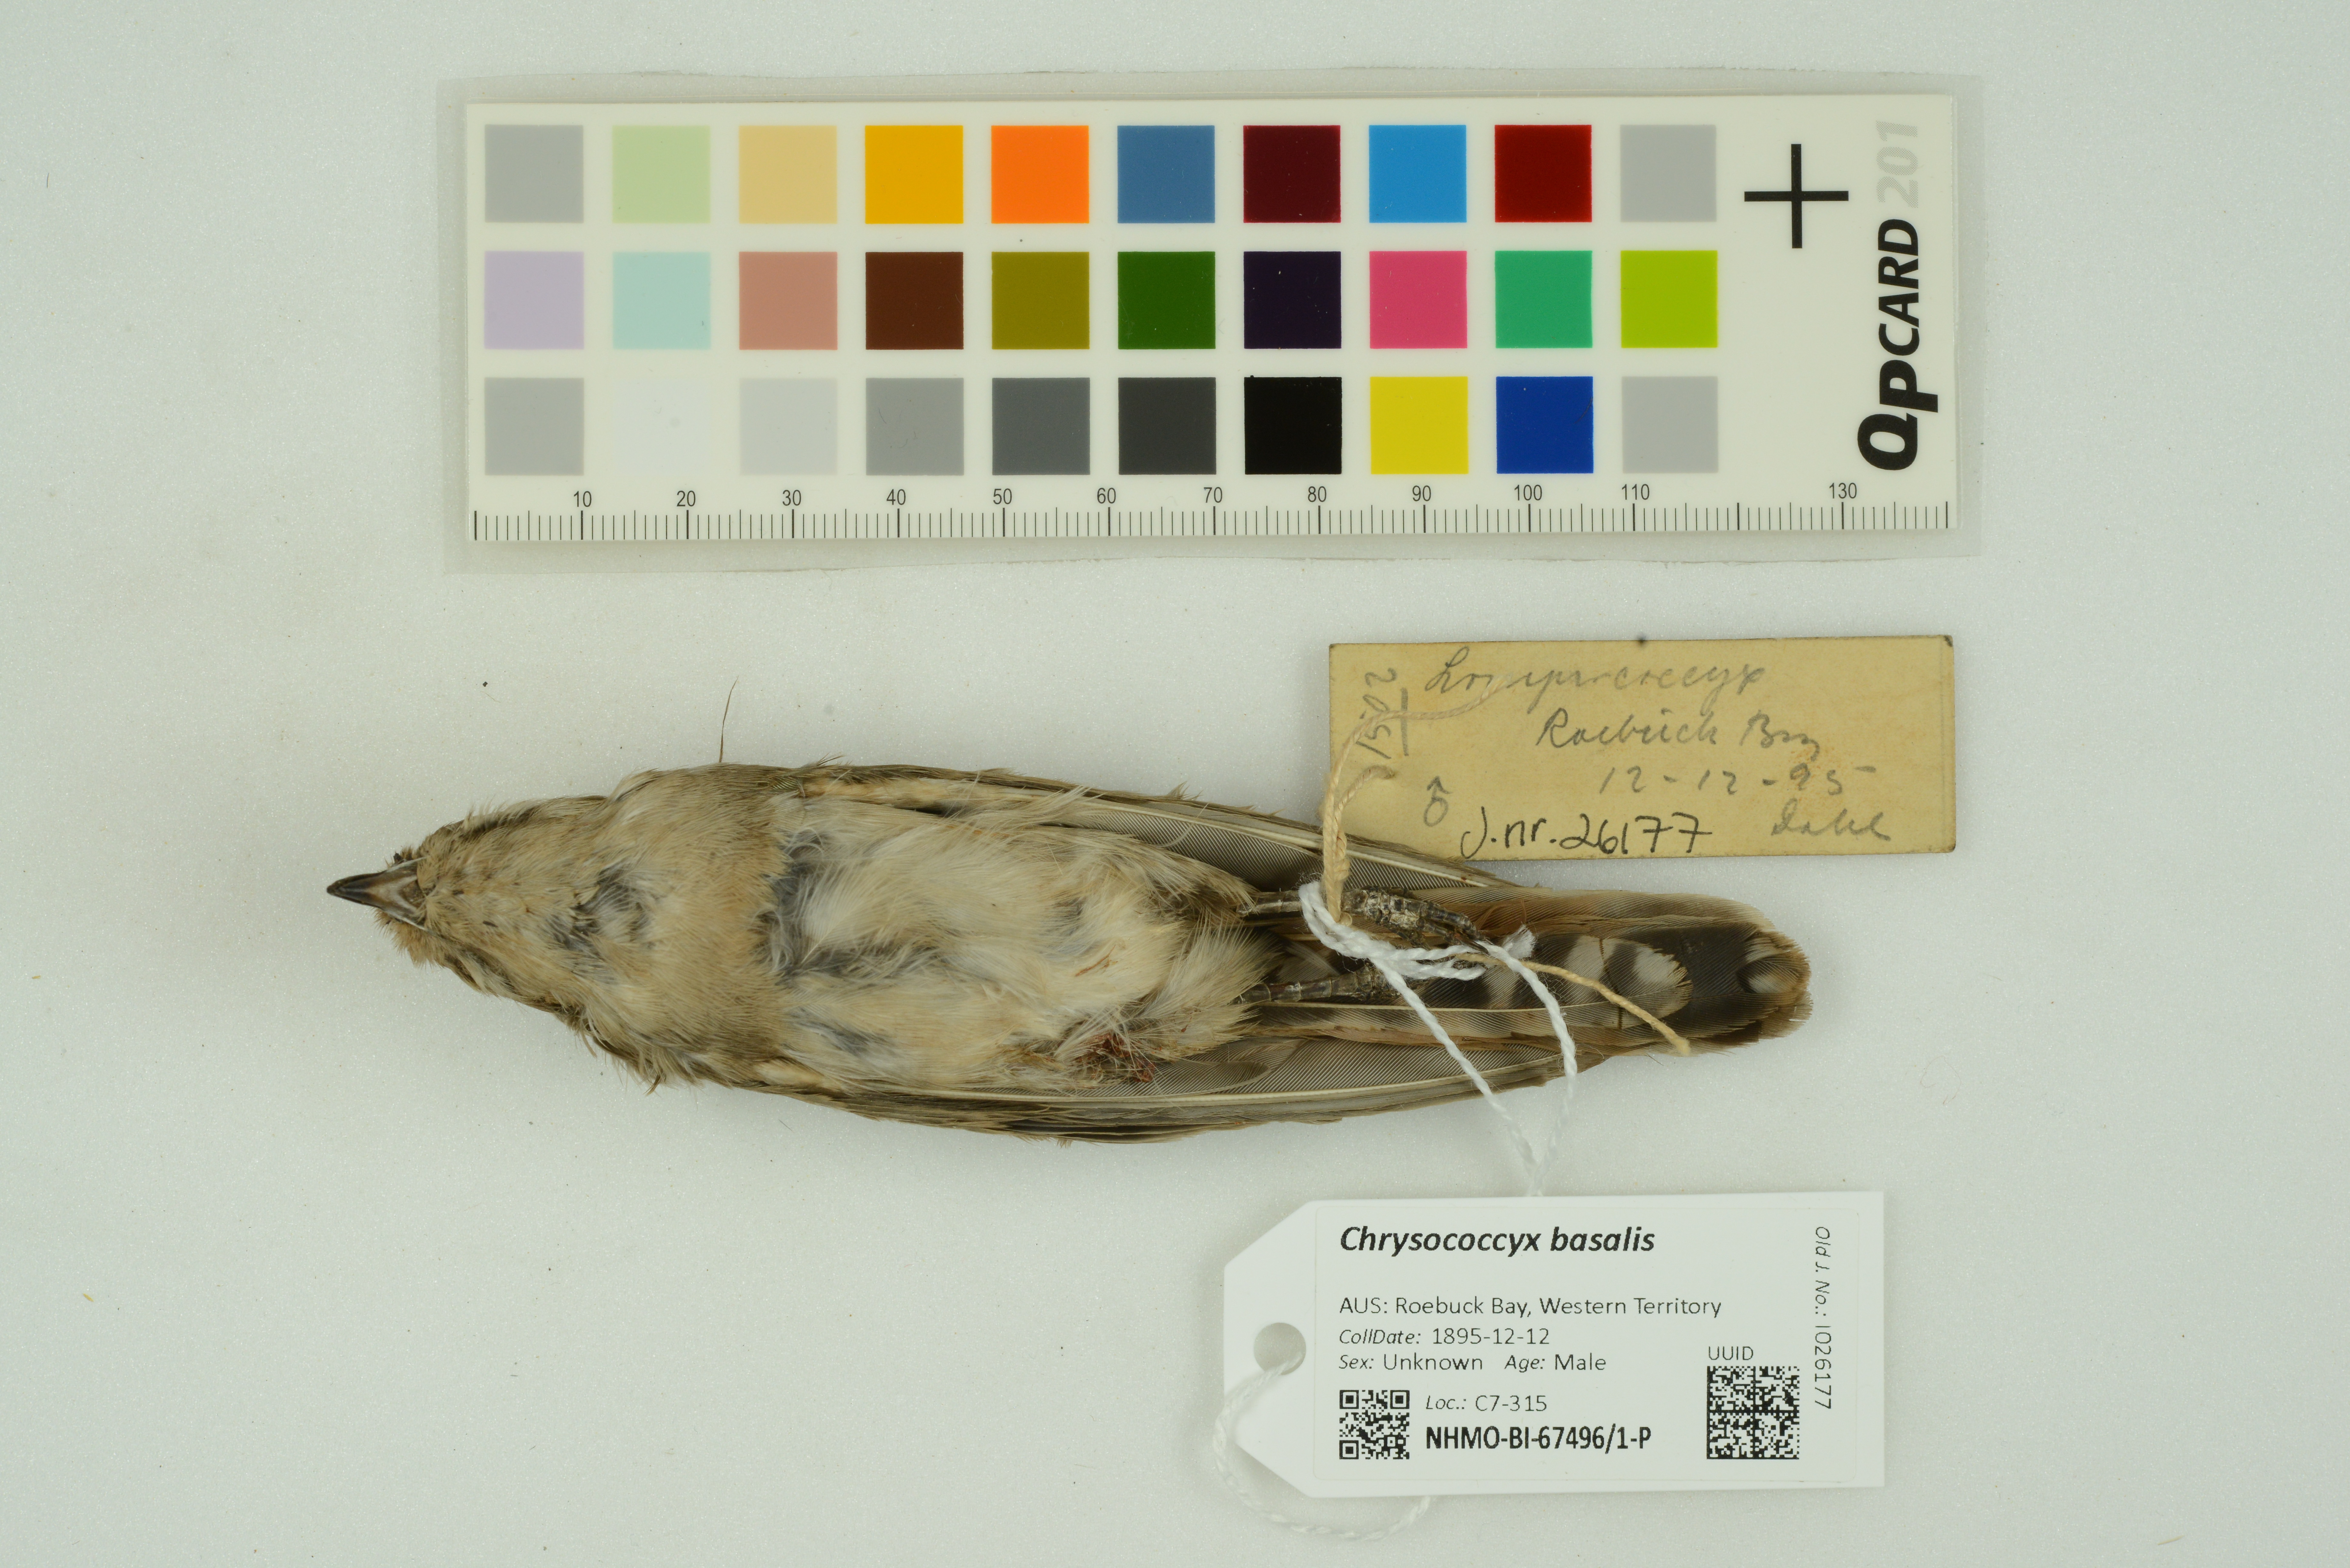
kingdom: Animalia
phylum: Chordata
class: Aves
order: Cuculiformes
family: Cuculidae
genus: Chrysococcyx
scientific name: Chrysococcyx basalis
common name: Horsfield's bronze cuckoo
